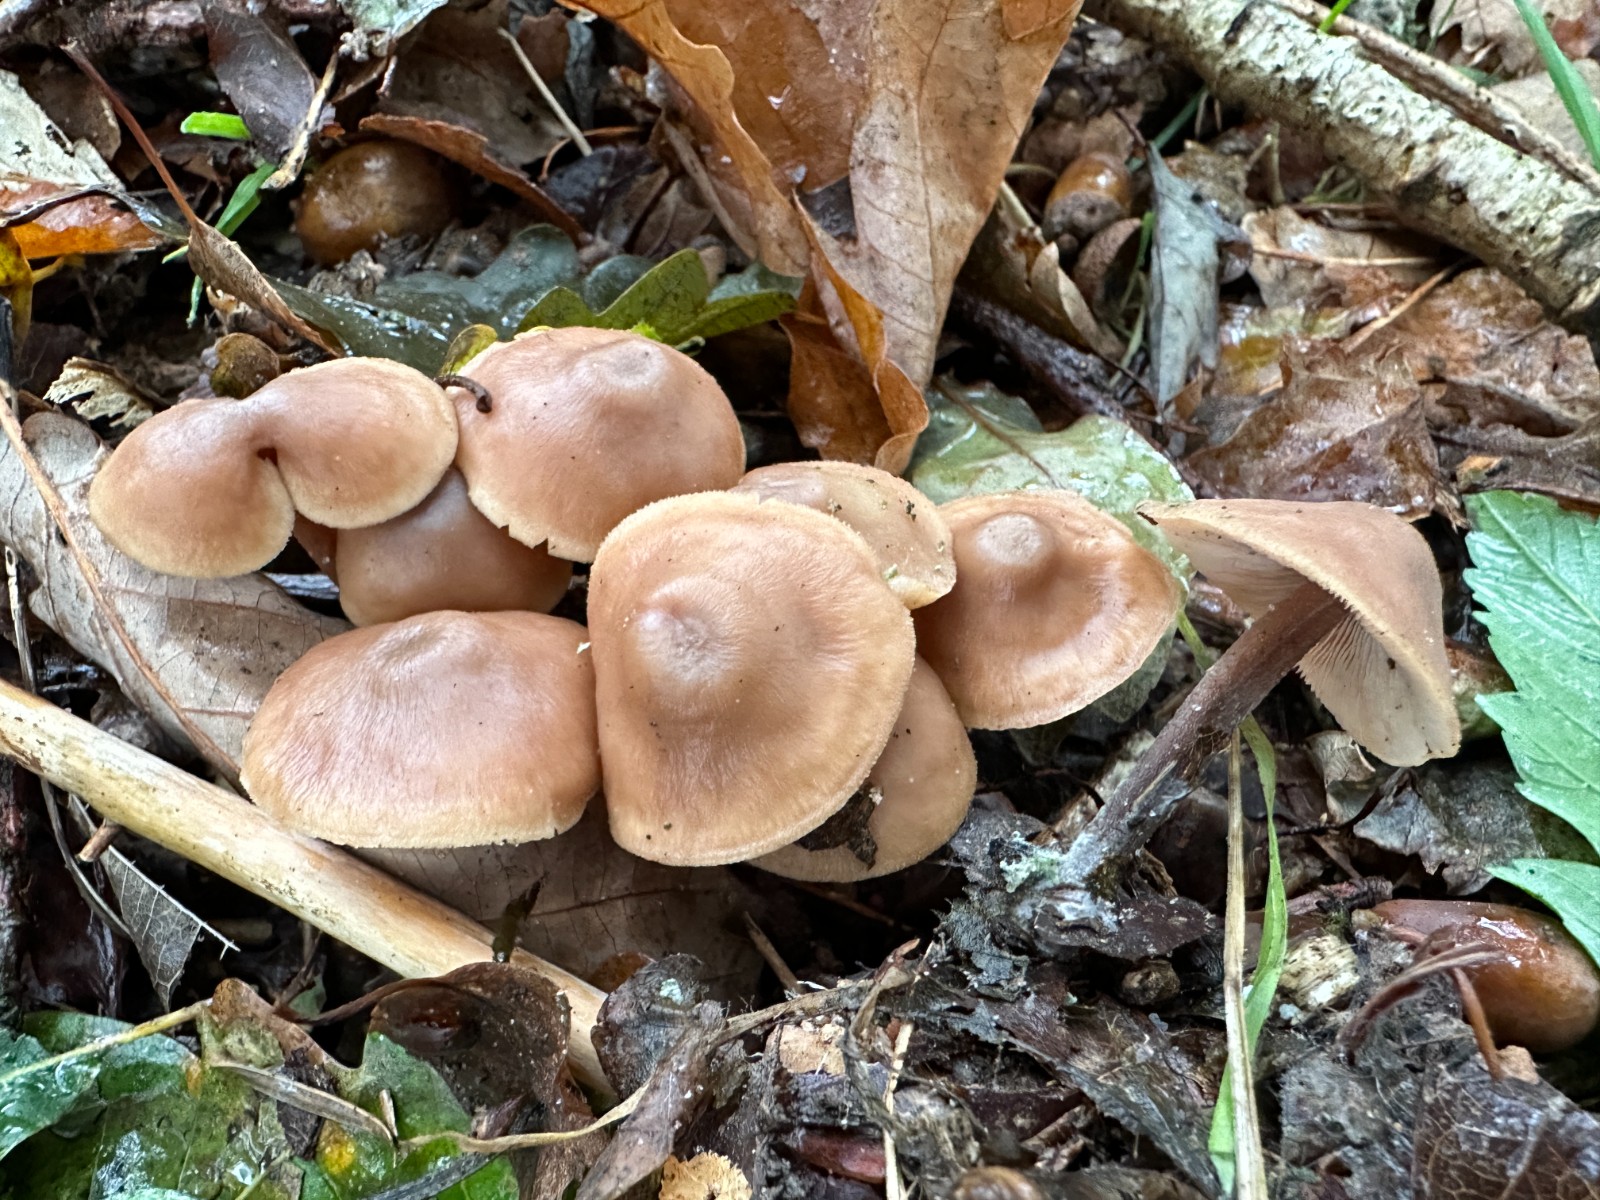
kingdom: Fungi
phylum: Basidiomycota
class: Agaricomycetes
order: Agaricales
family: Omphalotaceae
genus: Collybiopsis
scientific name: Collybiopsis confluens
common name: knippe-fladhat
